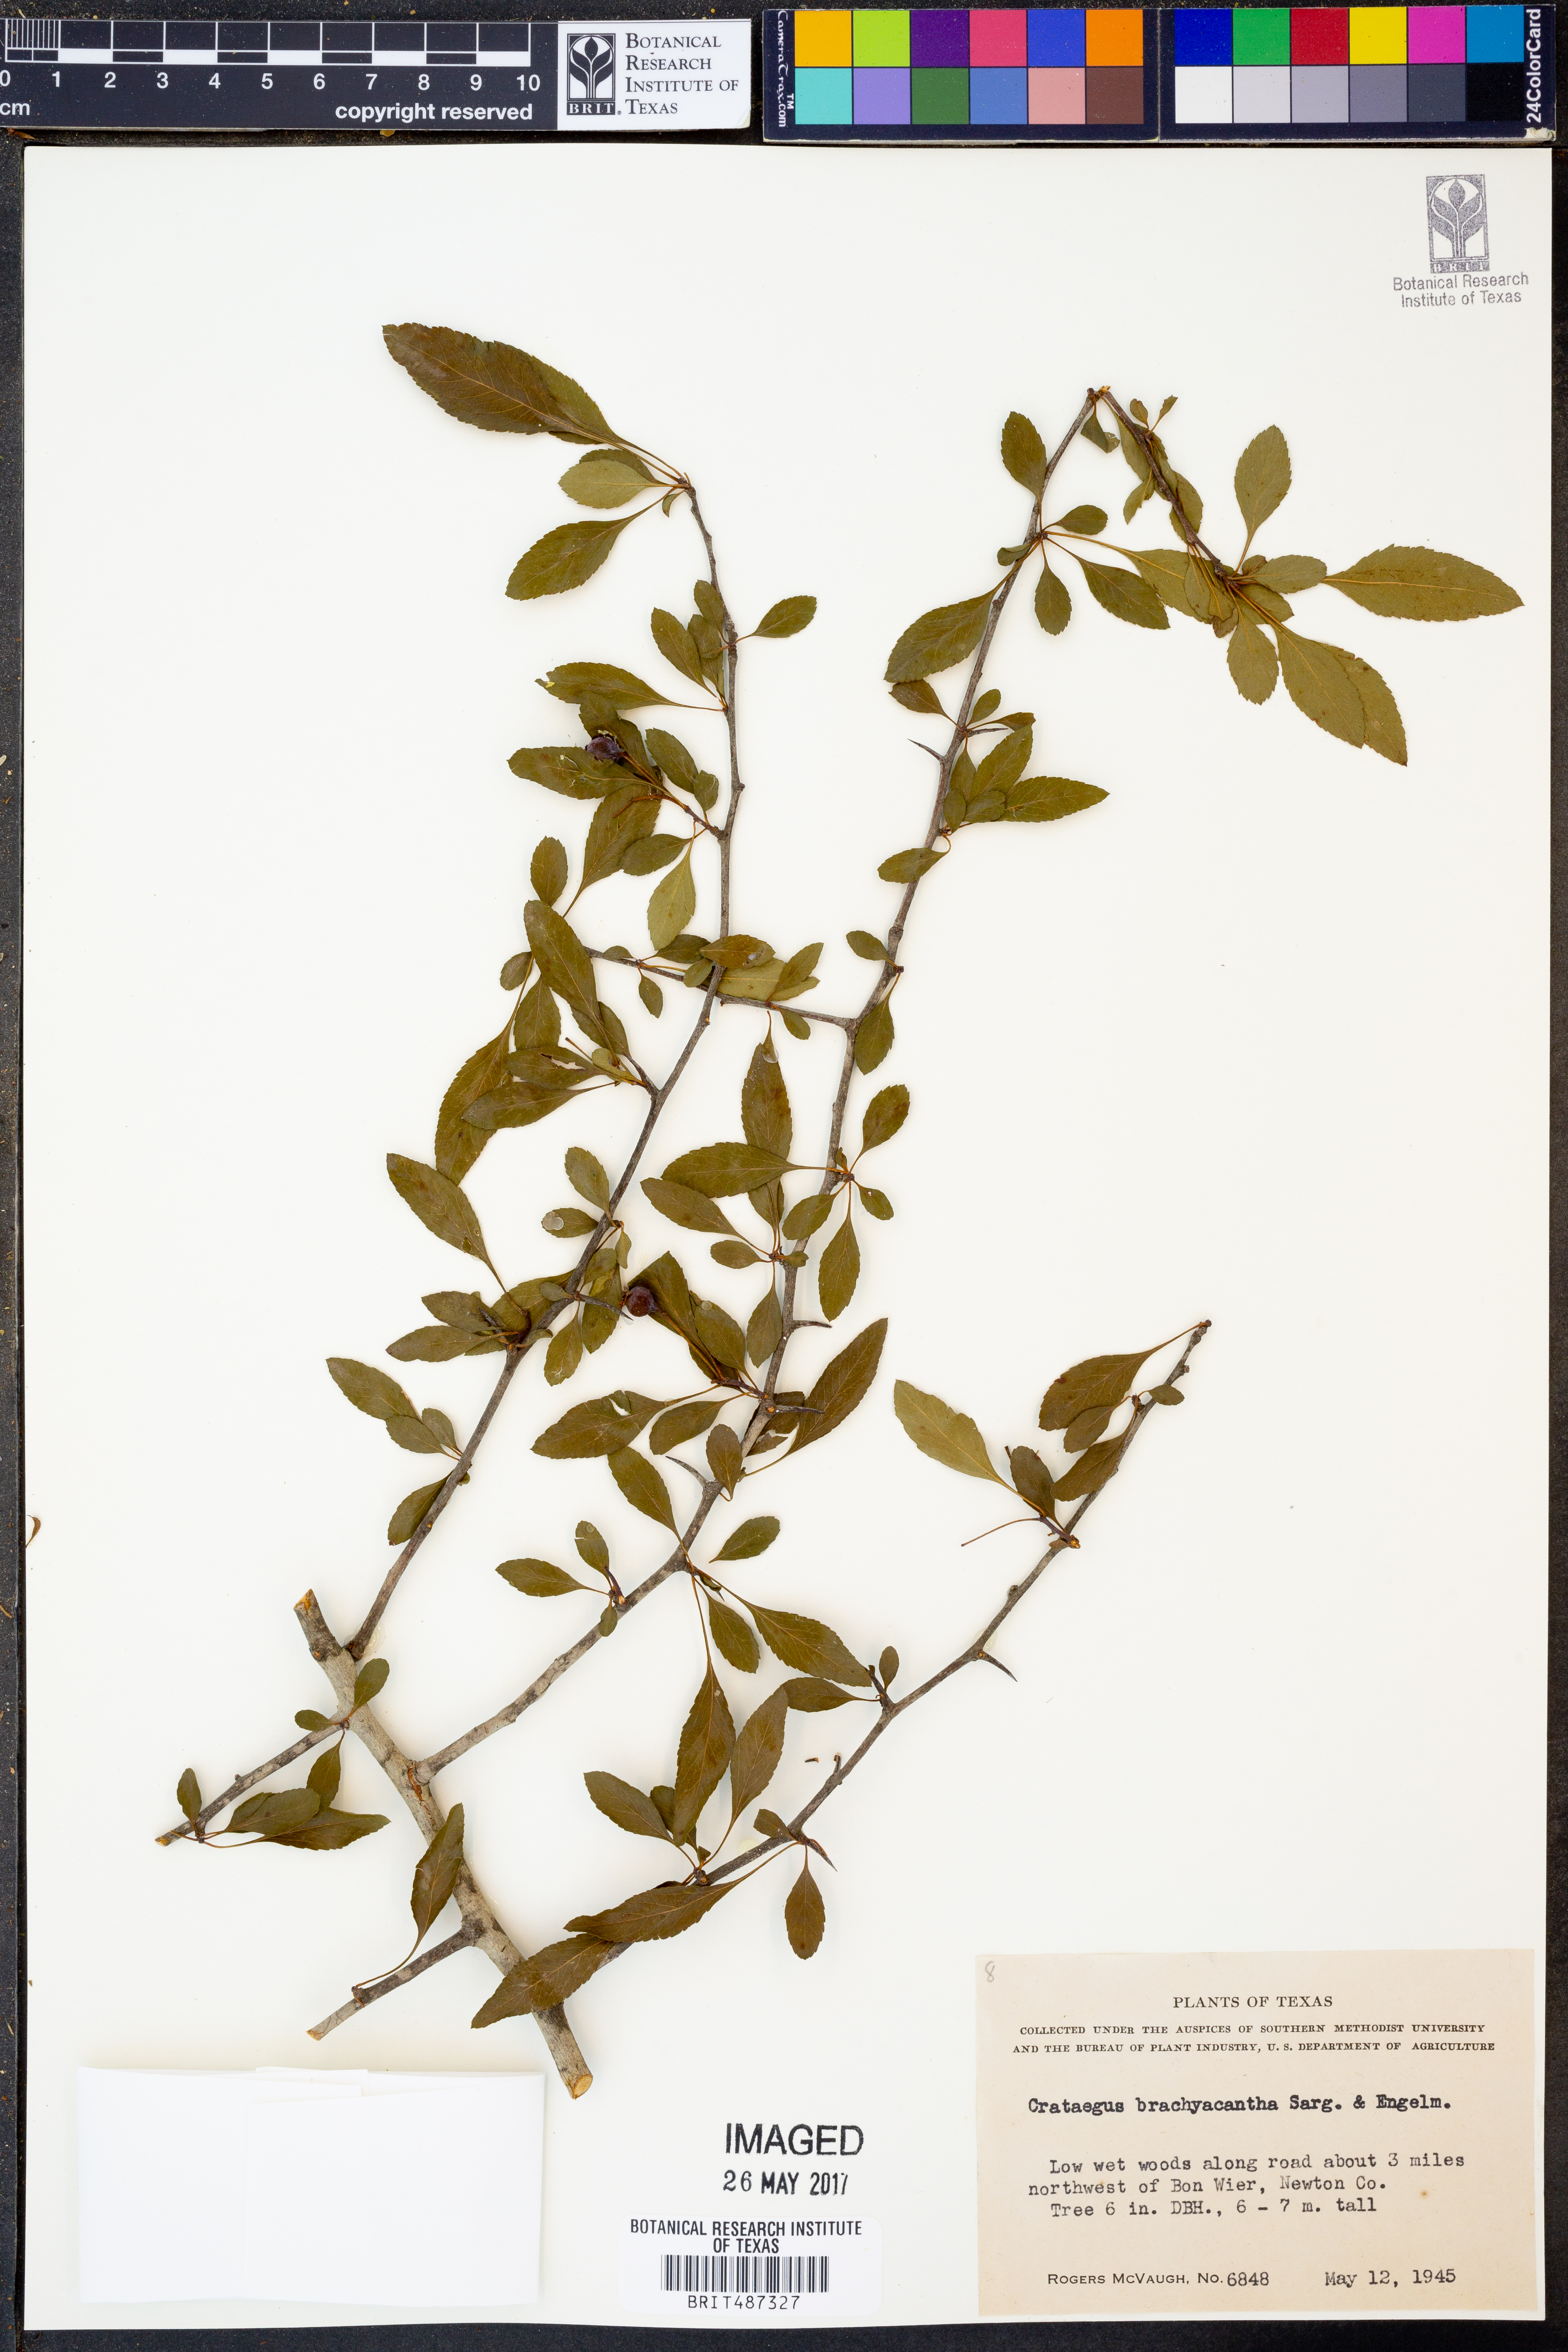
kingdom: Plantae
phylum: Tracheophyta
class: Magnoliopsida
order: Rosales
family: Rosaceae
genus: Crataegus
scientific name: Crataegus brachyacantha
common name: Blueberry-hawthorn
